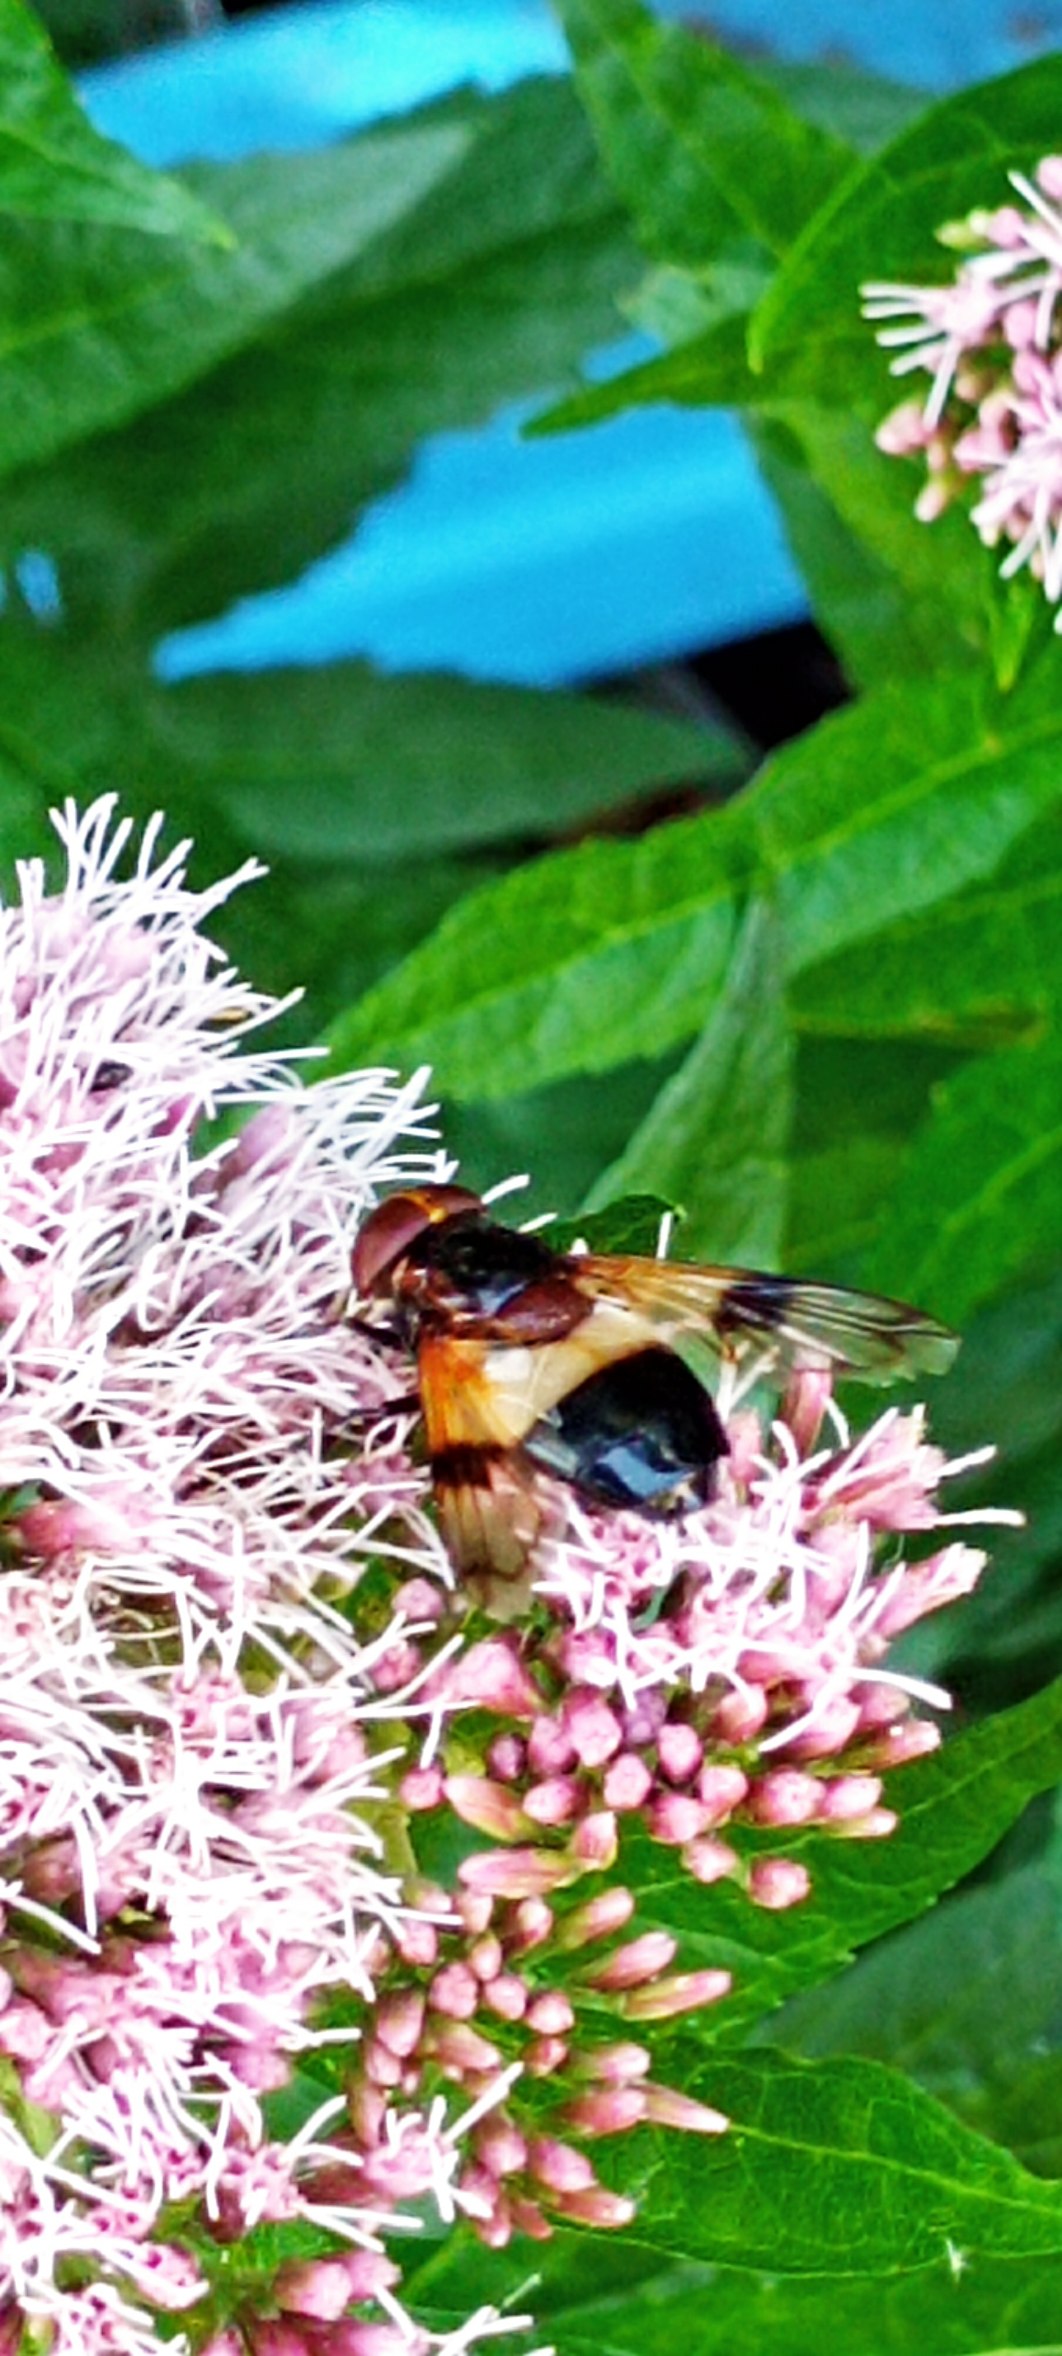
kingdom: Animalia
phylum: Arthropoda
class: Insecta
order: Diptera
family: Syrphidae
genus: Volucella
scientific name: Volucella pellucens
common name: Hvidbåndet humlesvirreflue
